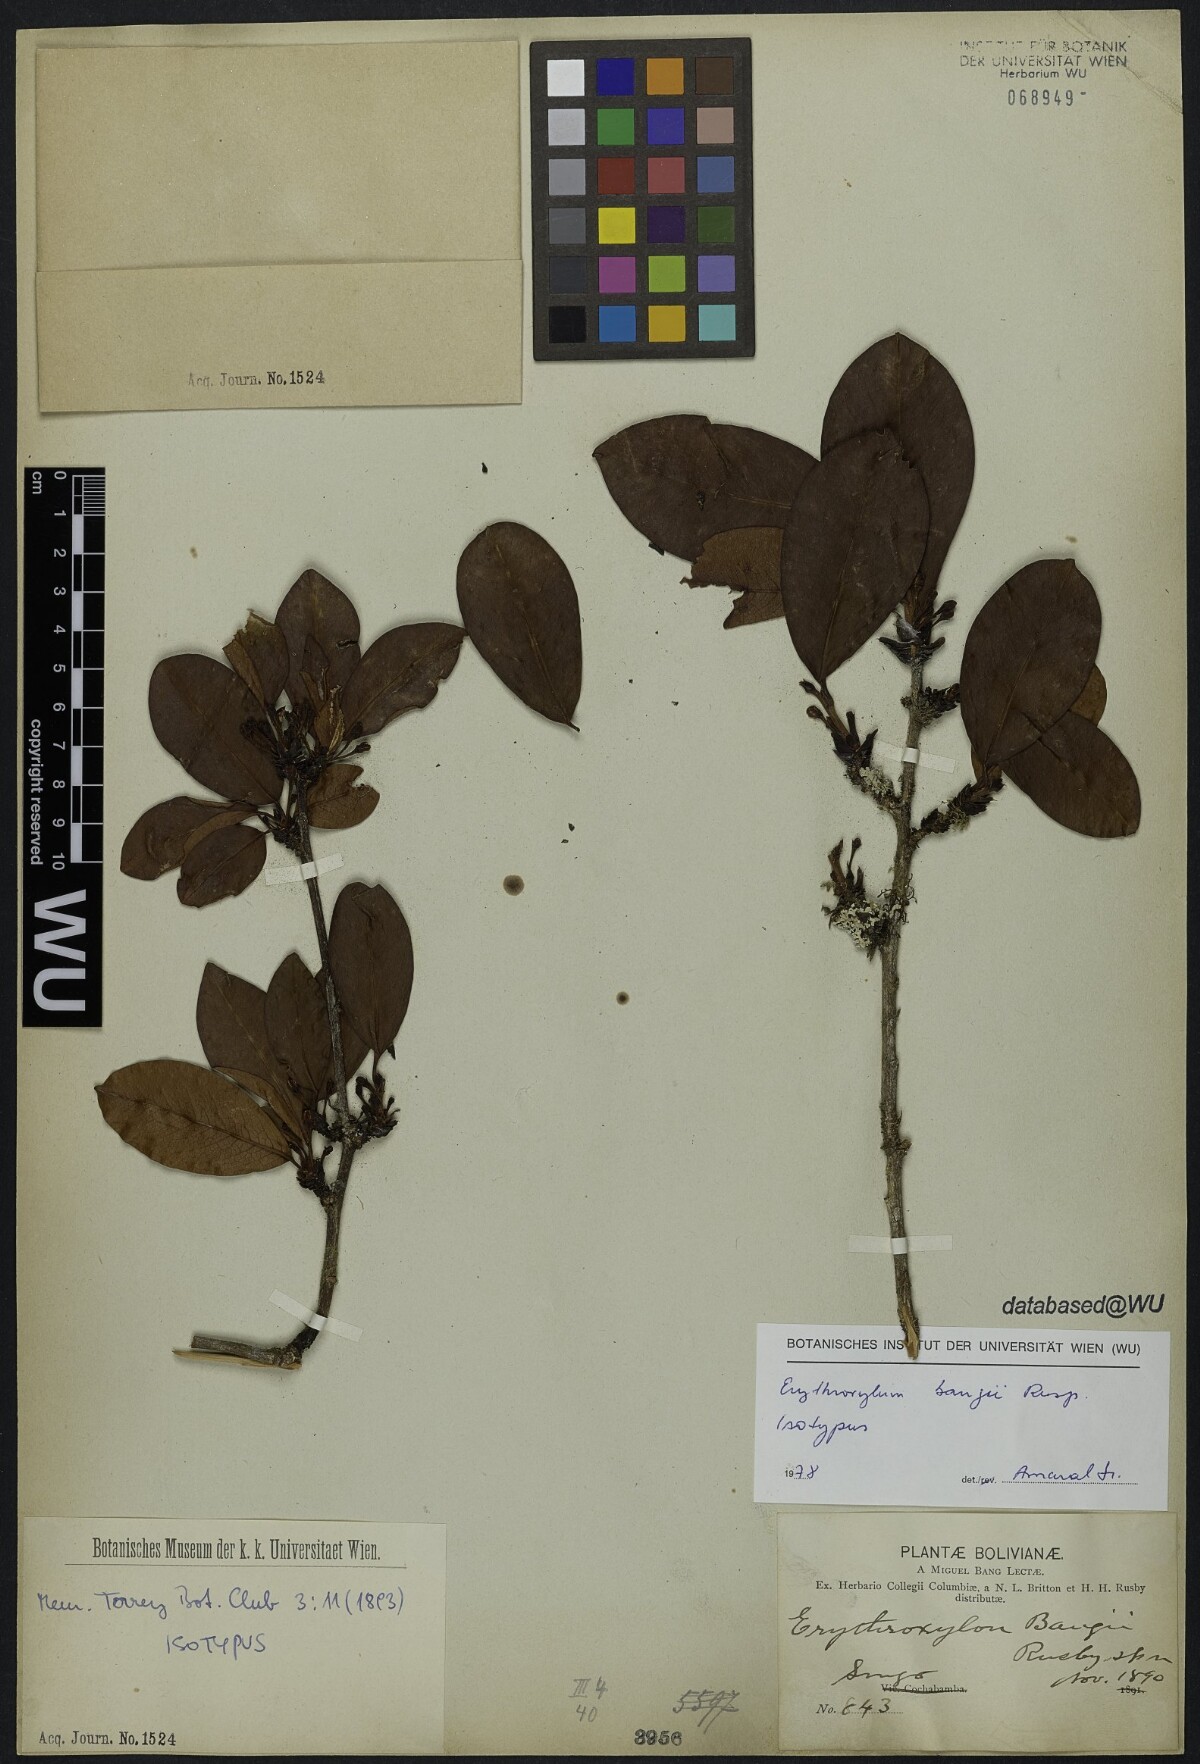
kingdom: Plantae
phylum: Tracheophyta
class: Magnoliopsida
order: Malpighiales
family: Erythroxylaceae
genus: Erythroxylum
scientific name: Erythroxylum bangii
